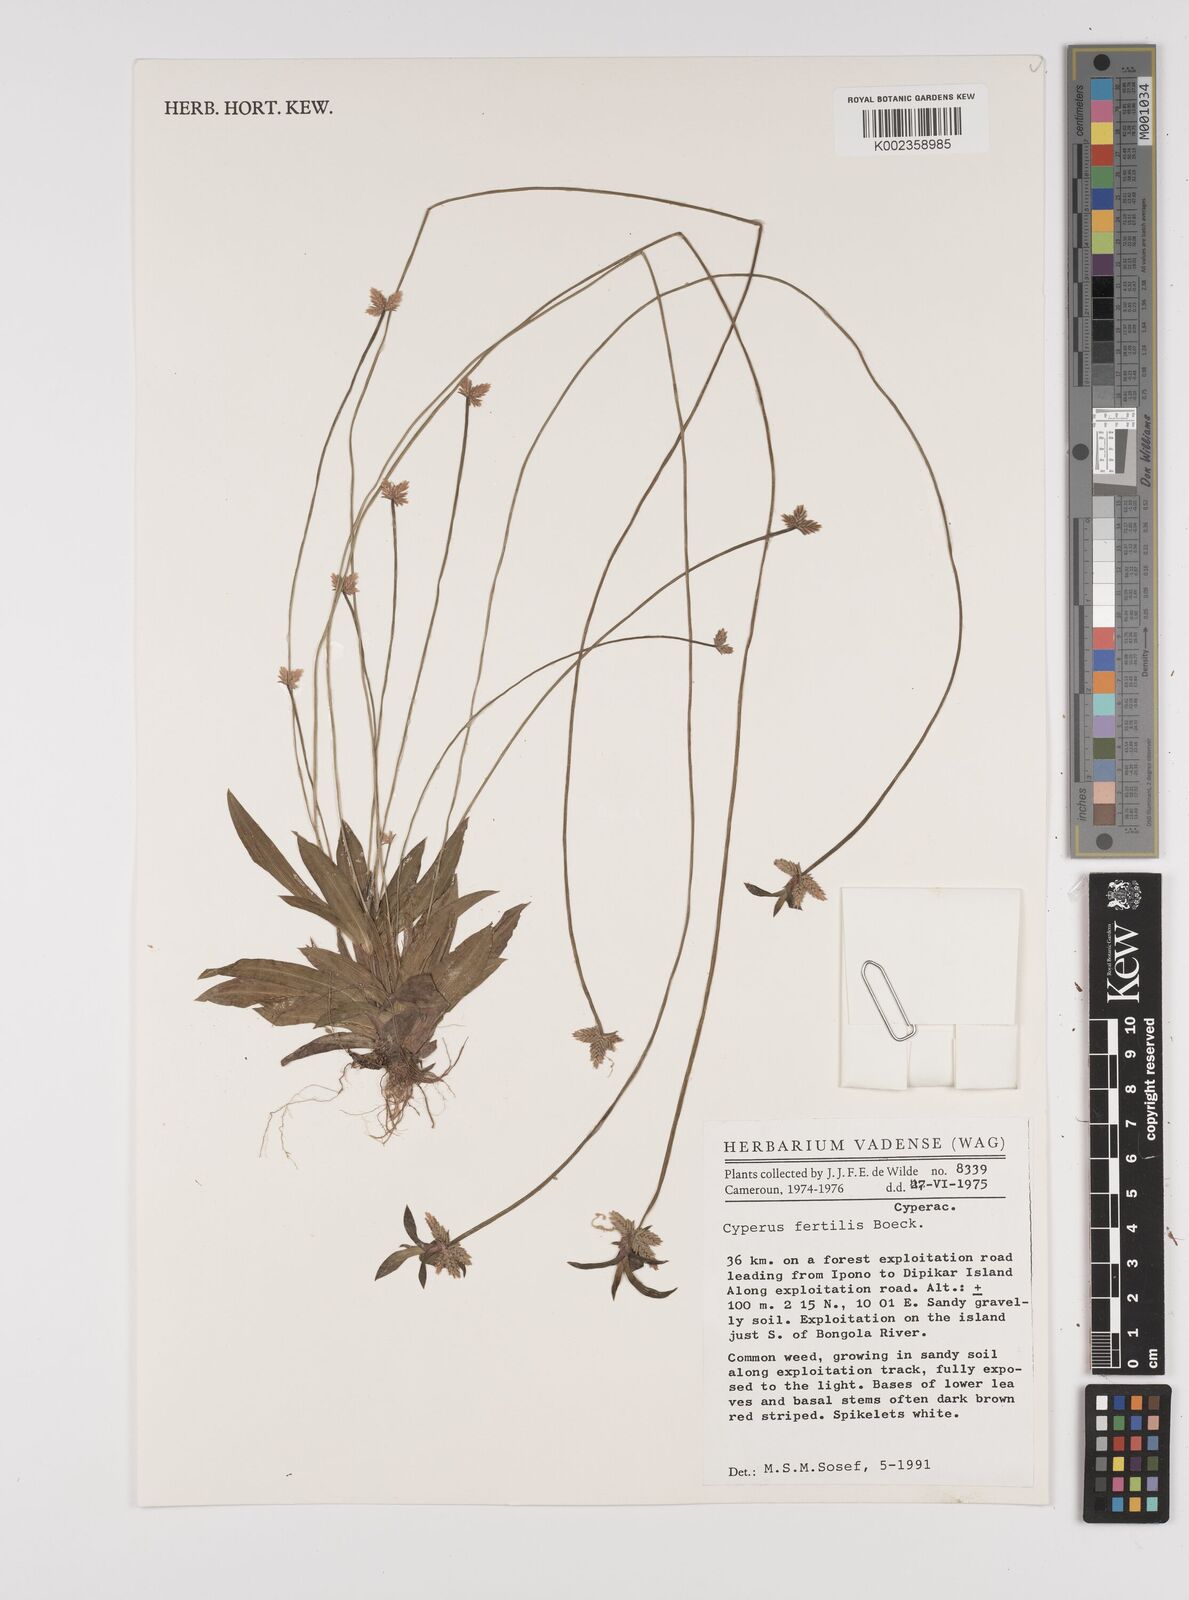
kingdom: Plantae
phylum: Tracheophyta
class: Liliopsida
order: Poales
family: Cyperaceae
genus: Cyperus
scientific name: Cyperus fertilis
